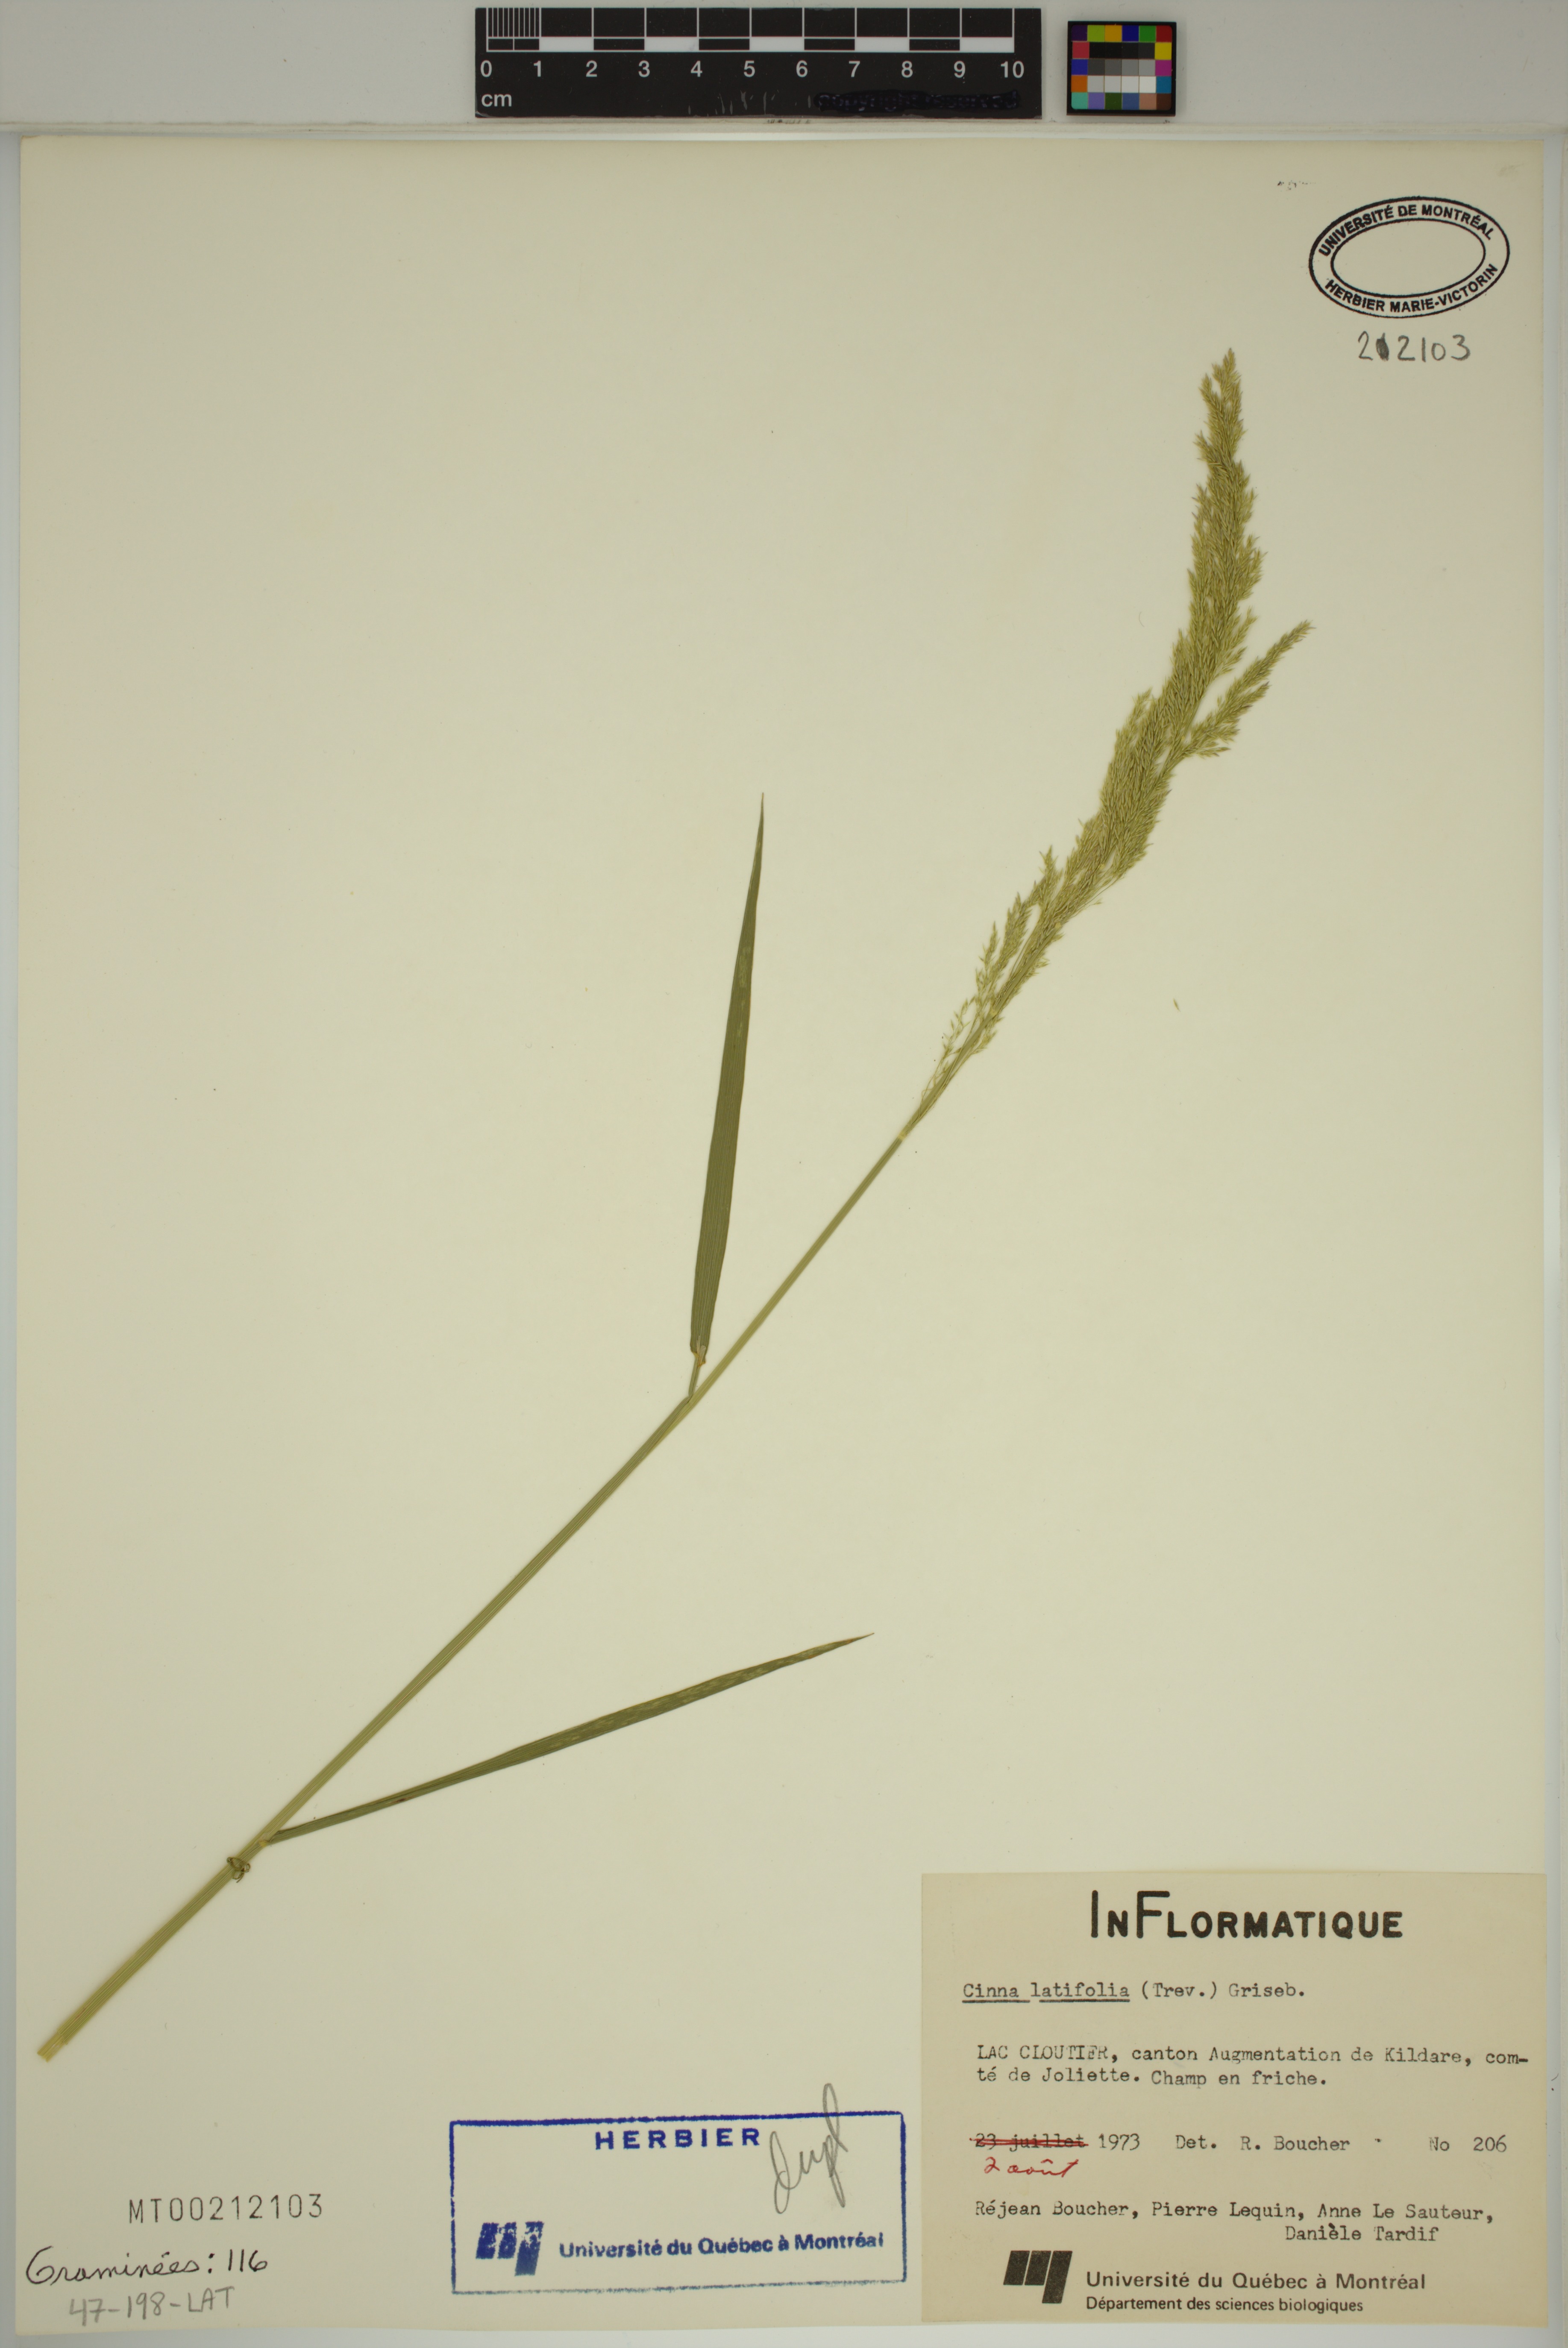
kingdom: Plantae
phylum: Tracheophyta
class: Liliopsida
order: Poales
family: Poaceae
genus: Agrostis
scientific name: Agrostis stolonifera
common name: Creeping bentgrass
